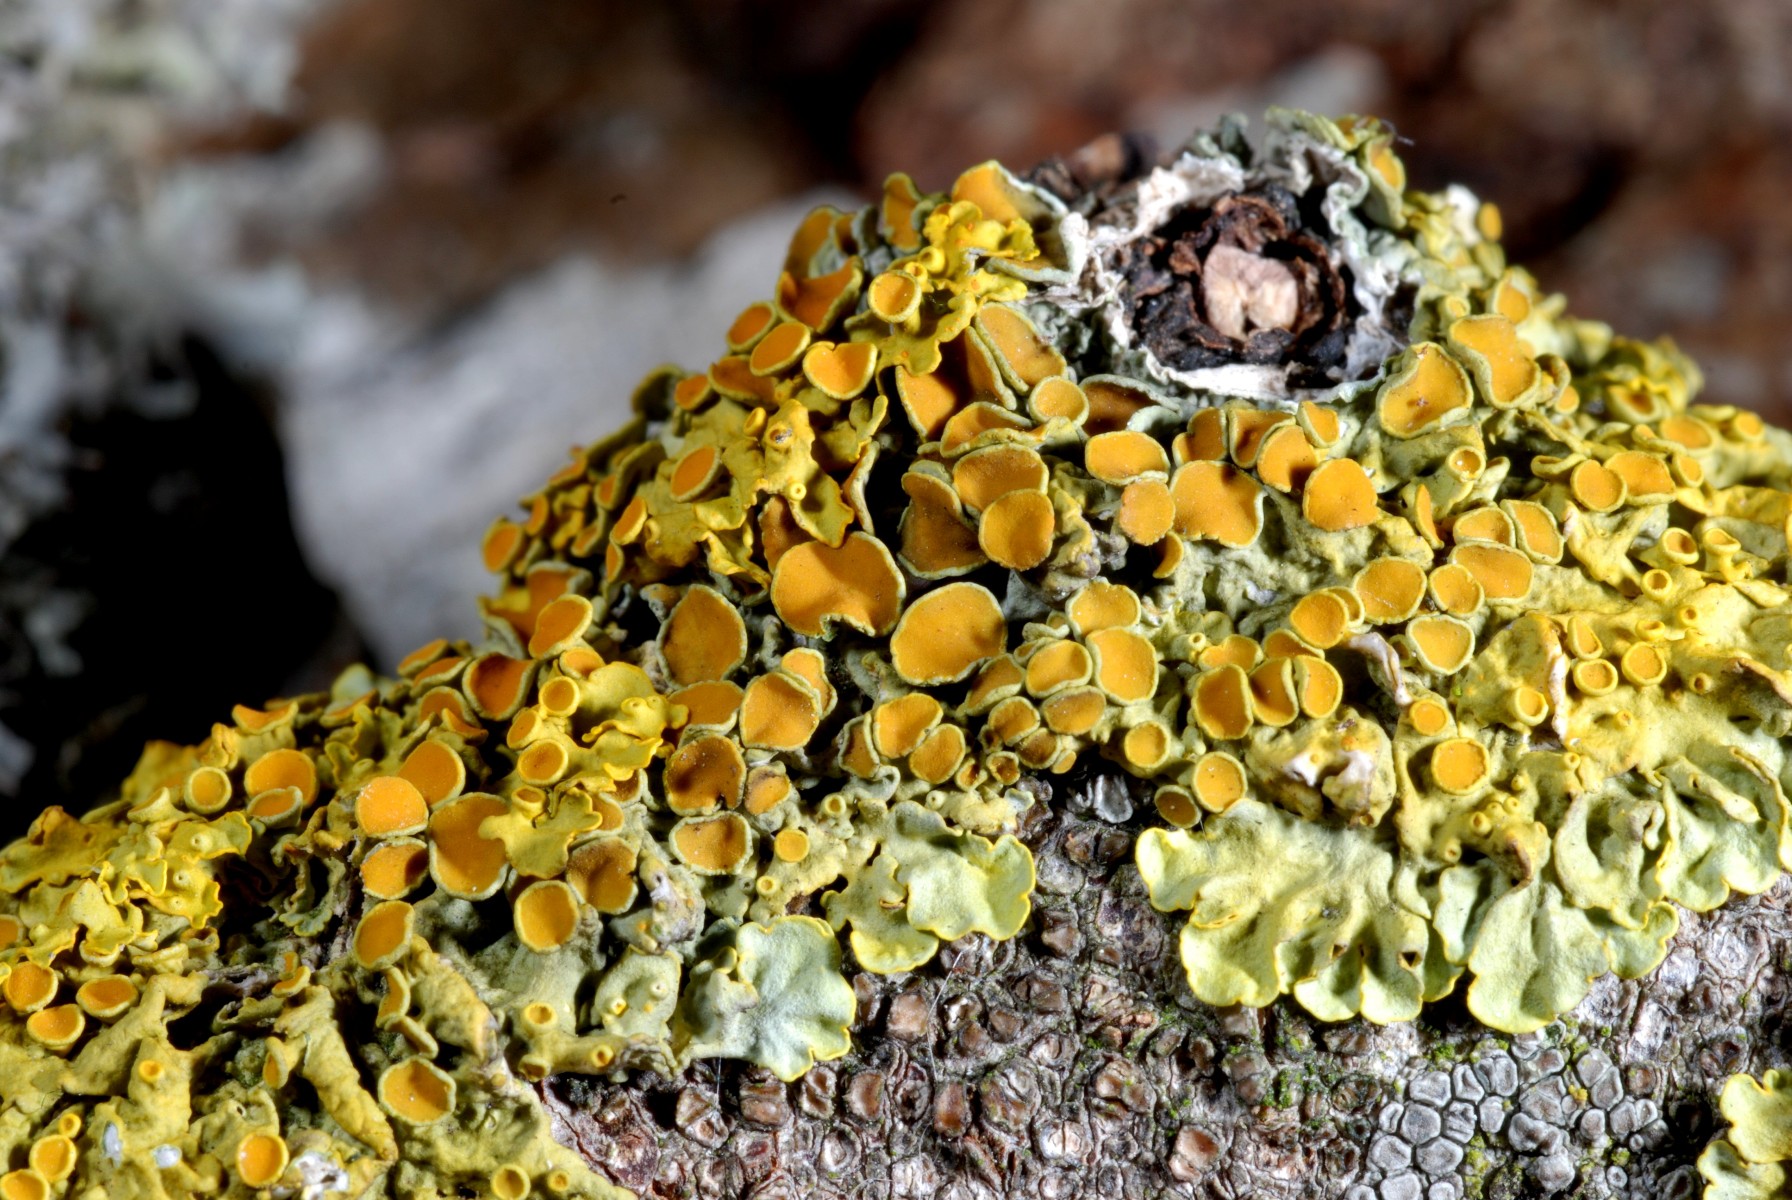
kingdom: Fungi
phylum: Ascomycota
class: Lecanoromycetes
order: Teloschistales
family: Teloschistaceae
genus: Xanthoria
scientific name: Xanthoria parietina
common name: almindelig væggelav
